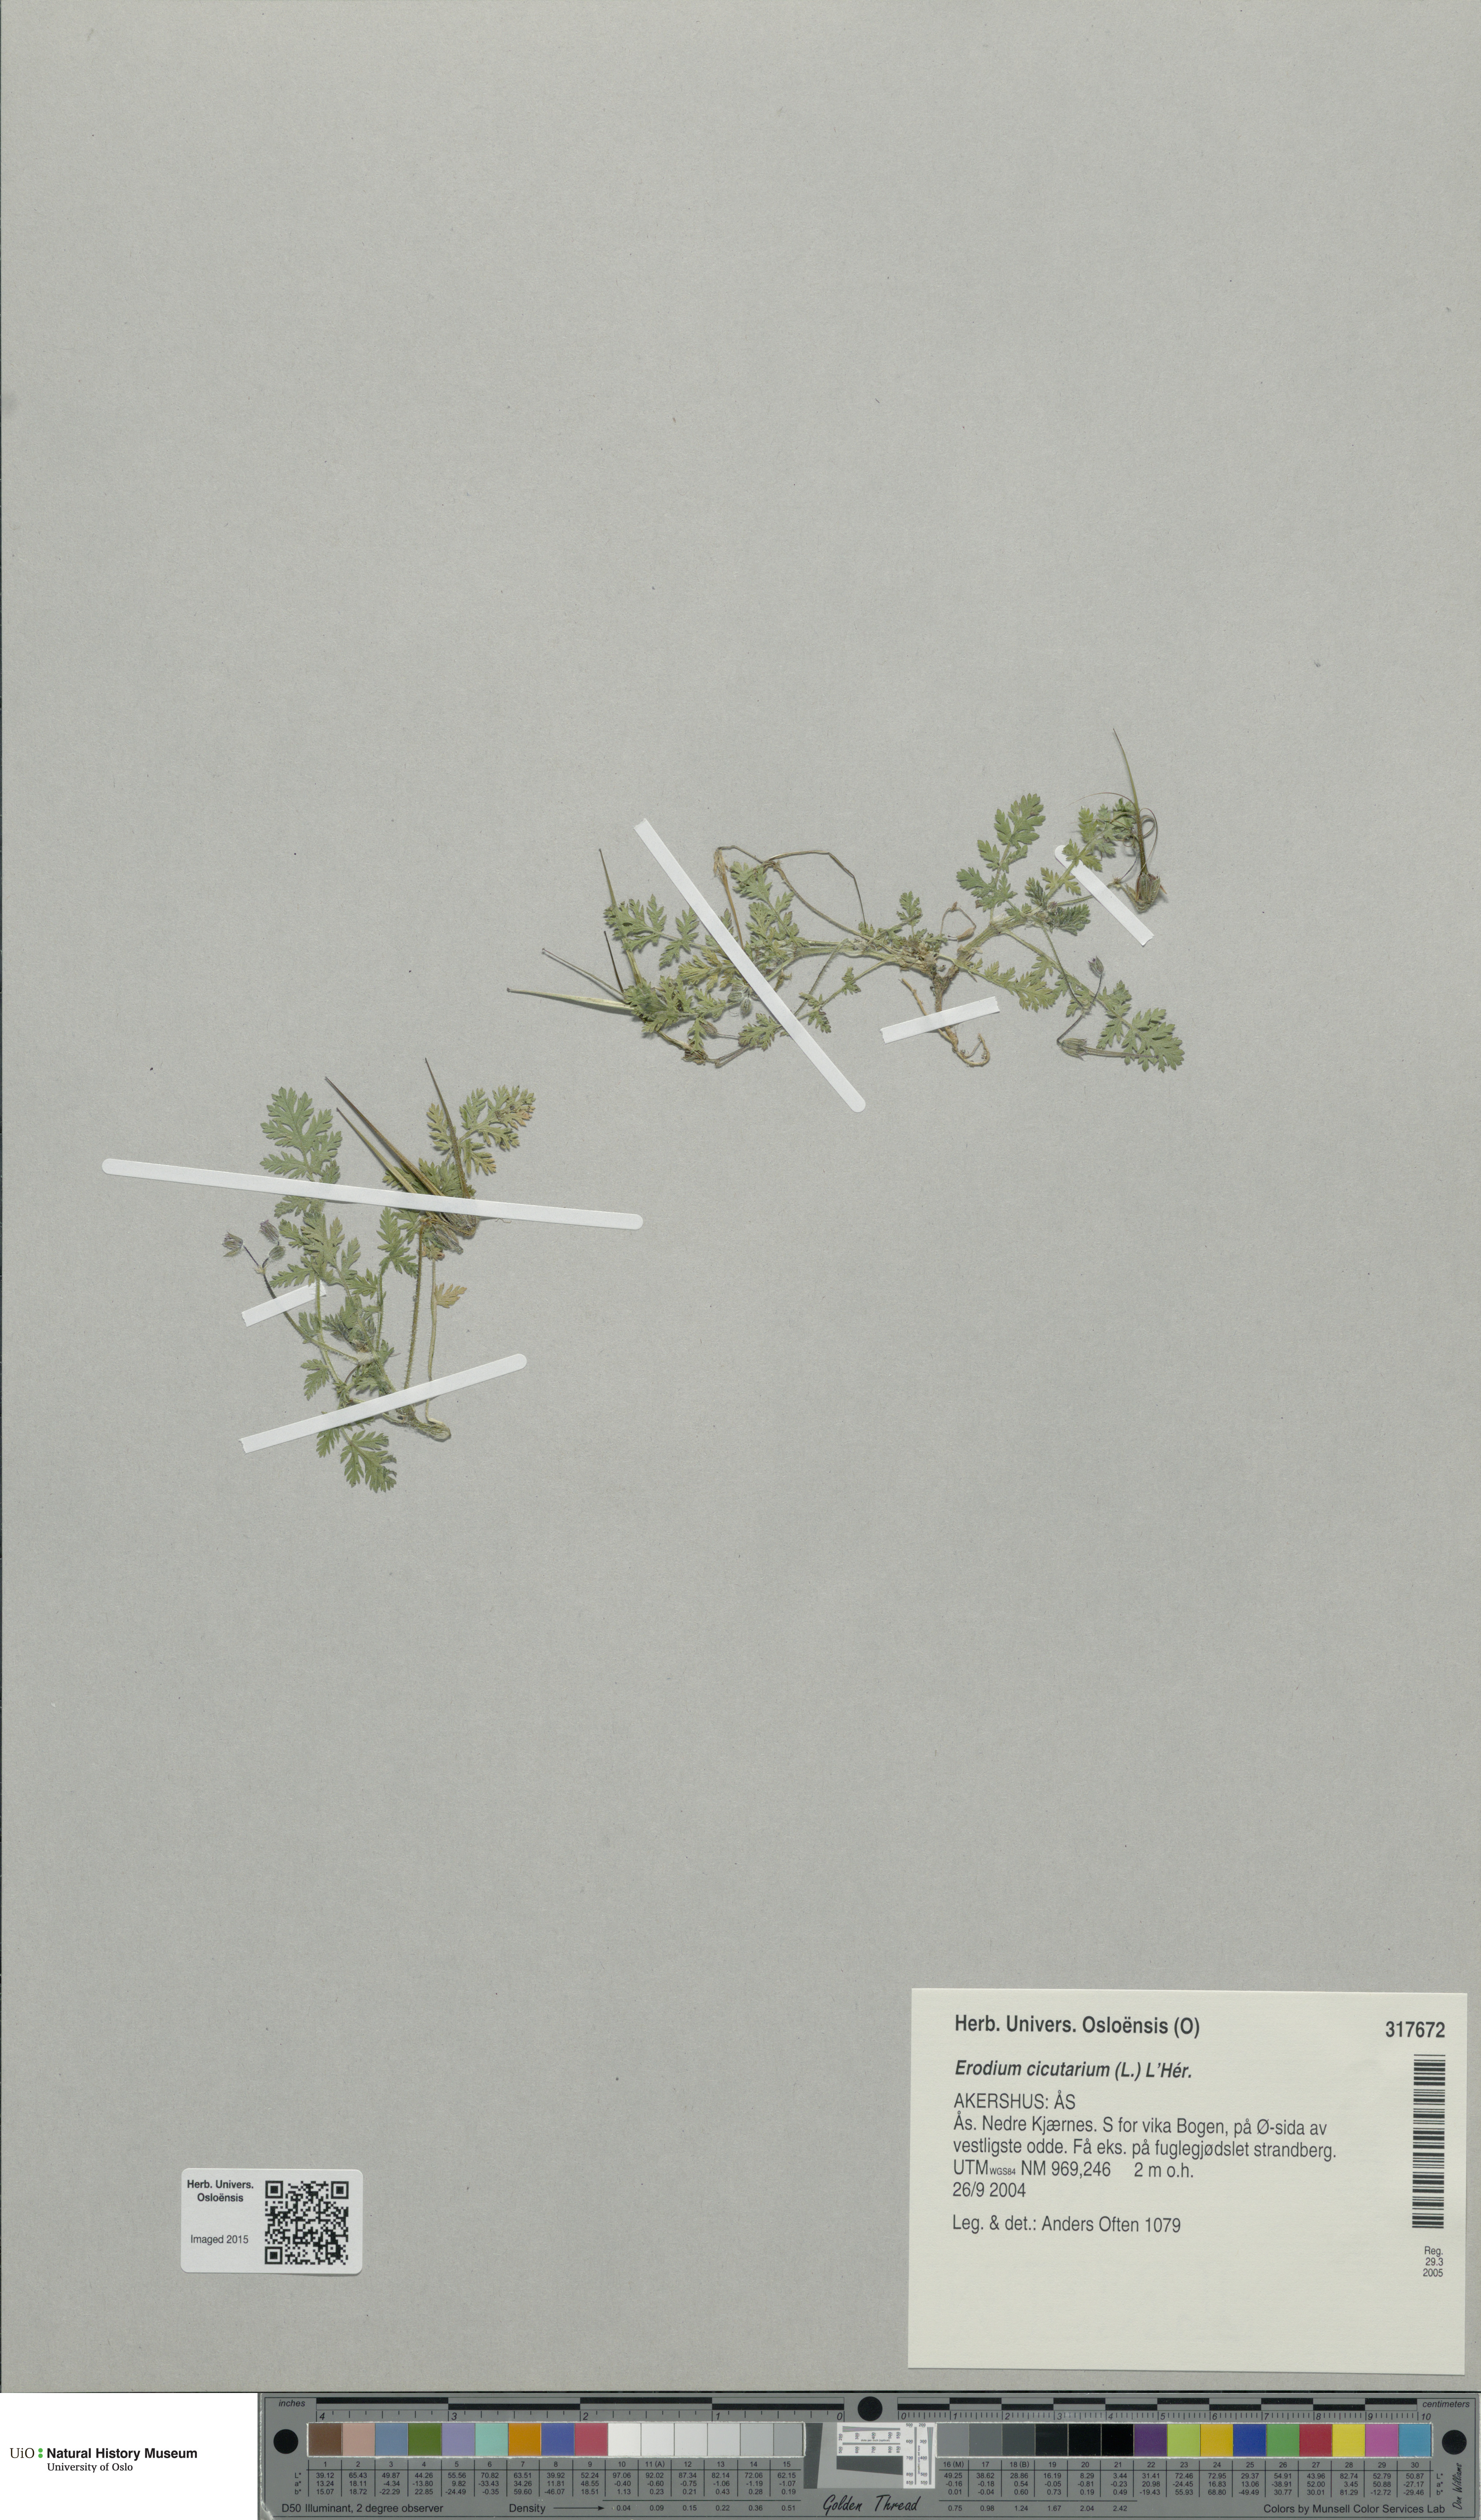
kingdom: Plantae
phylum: Tracheophyta
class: Magnoliopsida
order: Geraniales
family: Geraniaceae
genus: Erodium
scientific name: Erodium cicutarium
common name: Common stork's-bill
